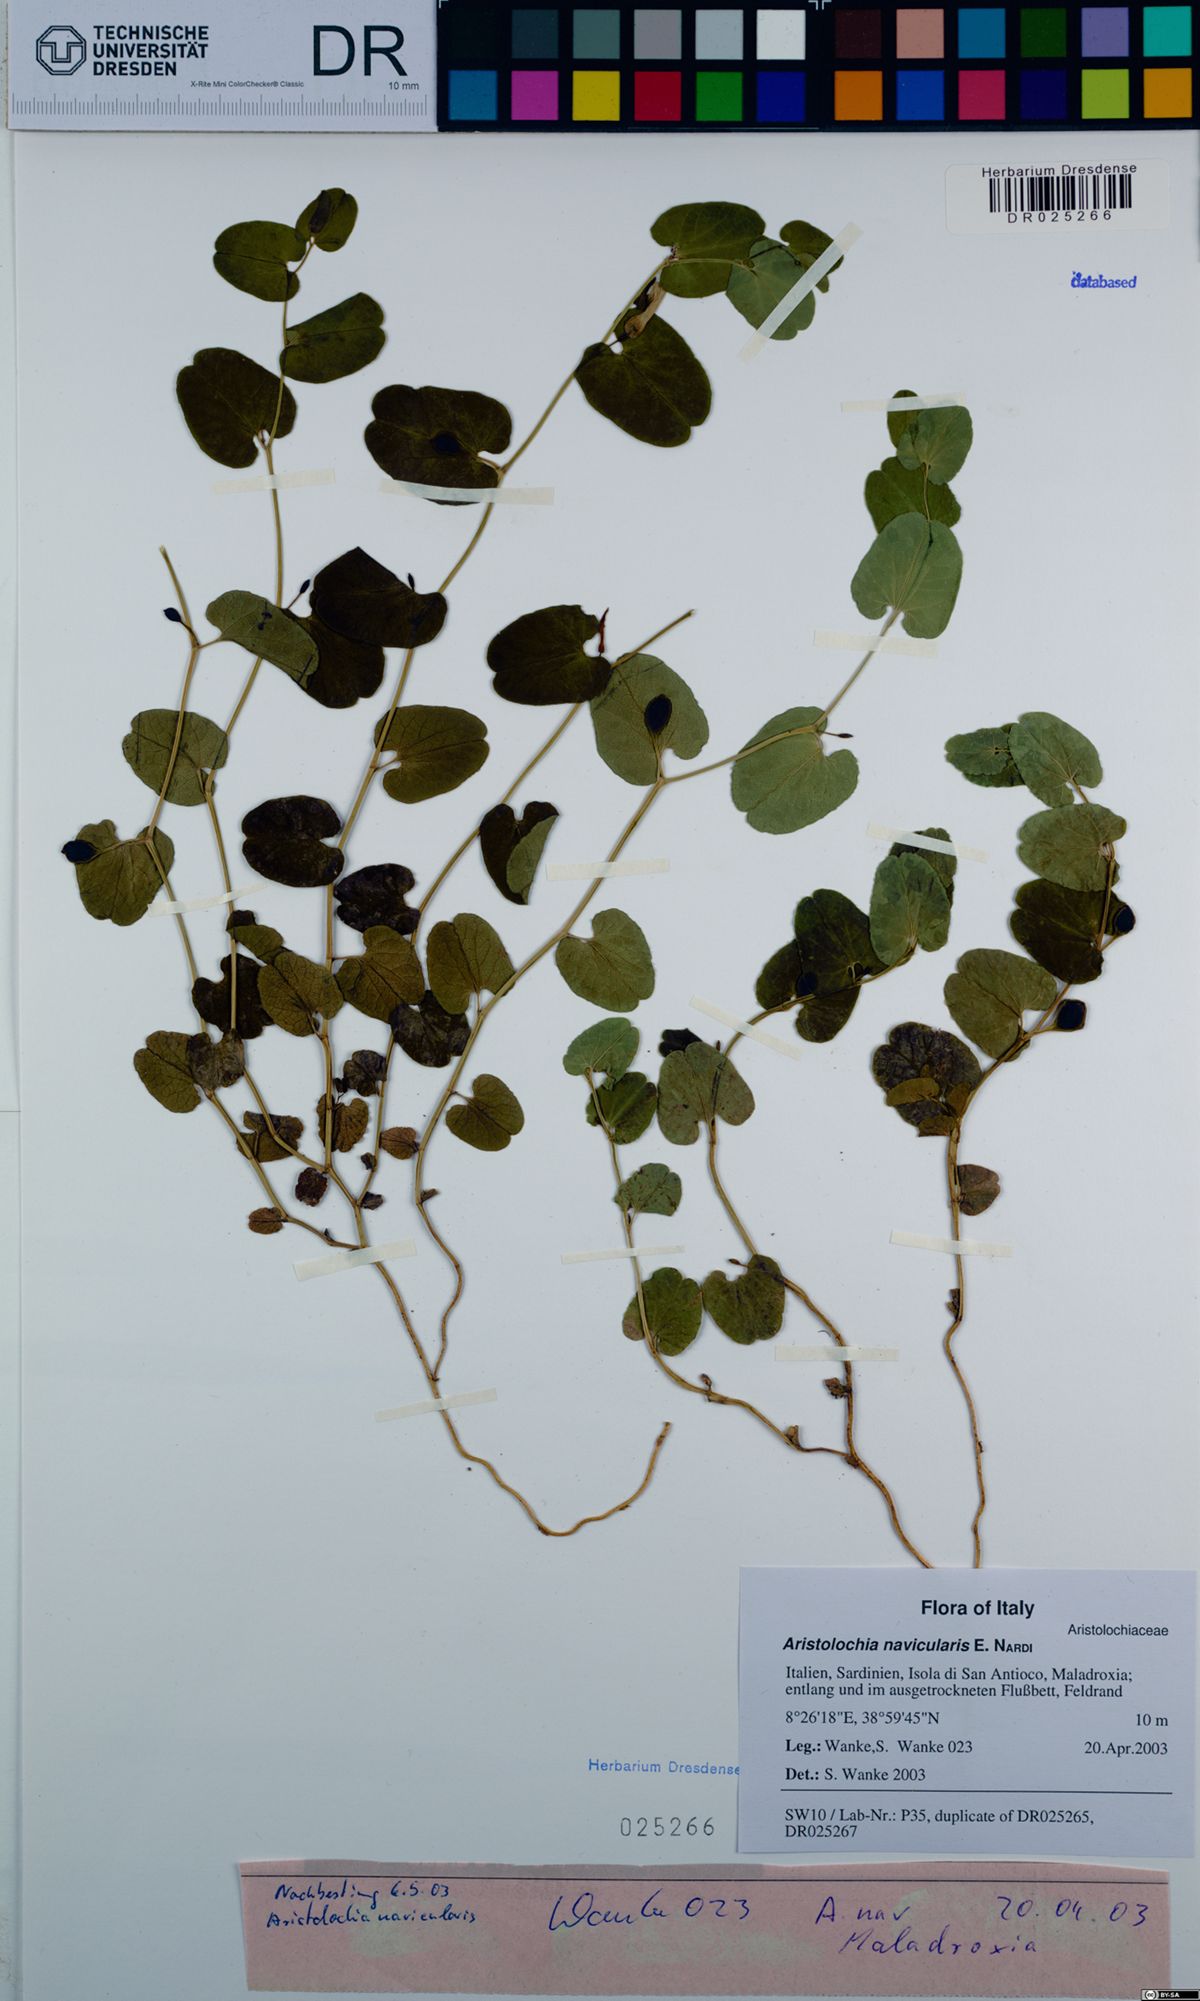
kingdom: Plantae
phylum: Tracheophyta
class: Magnoliopsida
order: Piperales
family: Aristolochiaceae
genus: Aristolochia
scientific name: Aristolochia navicularis
